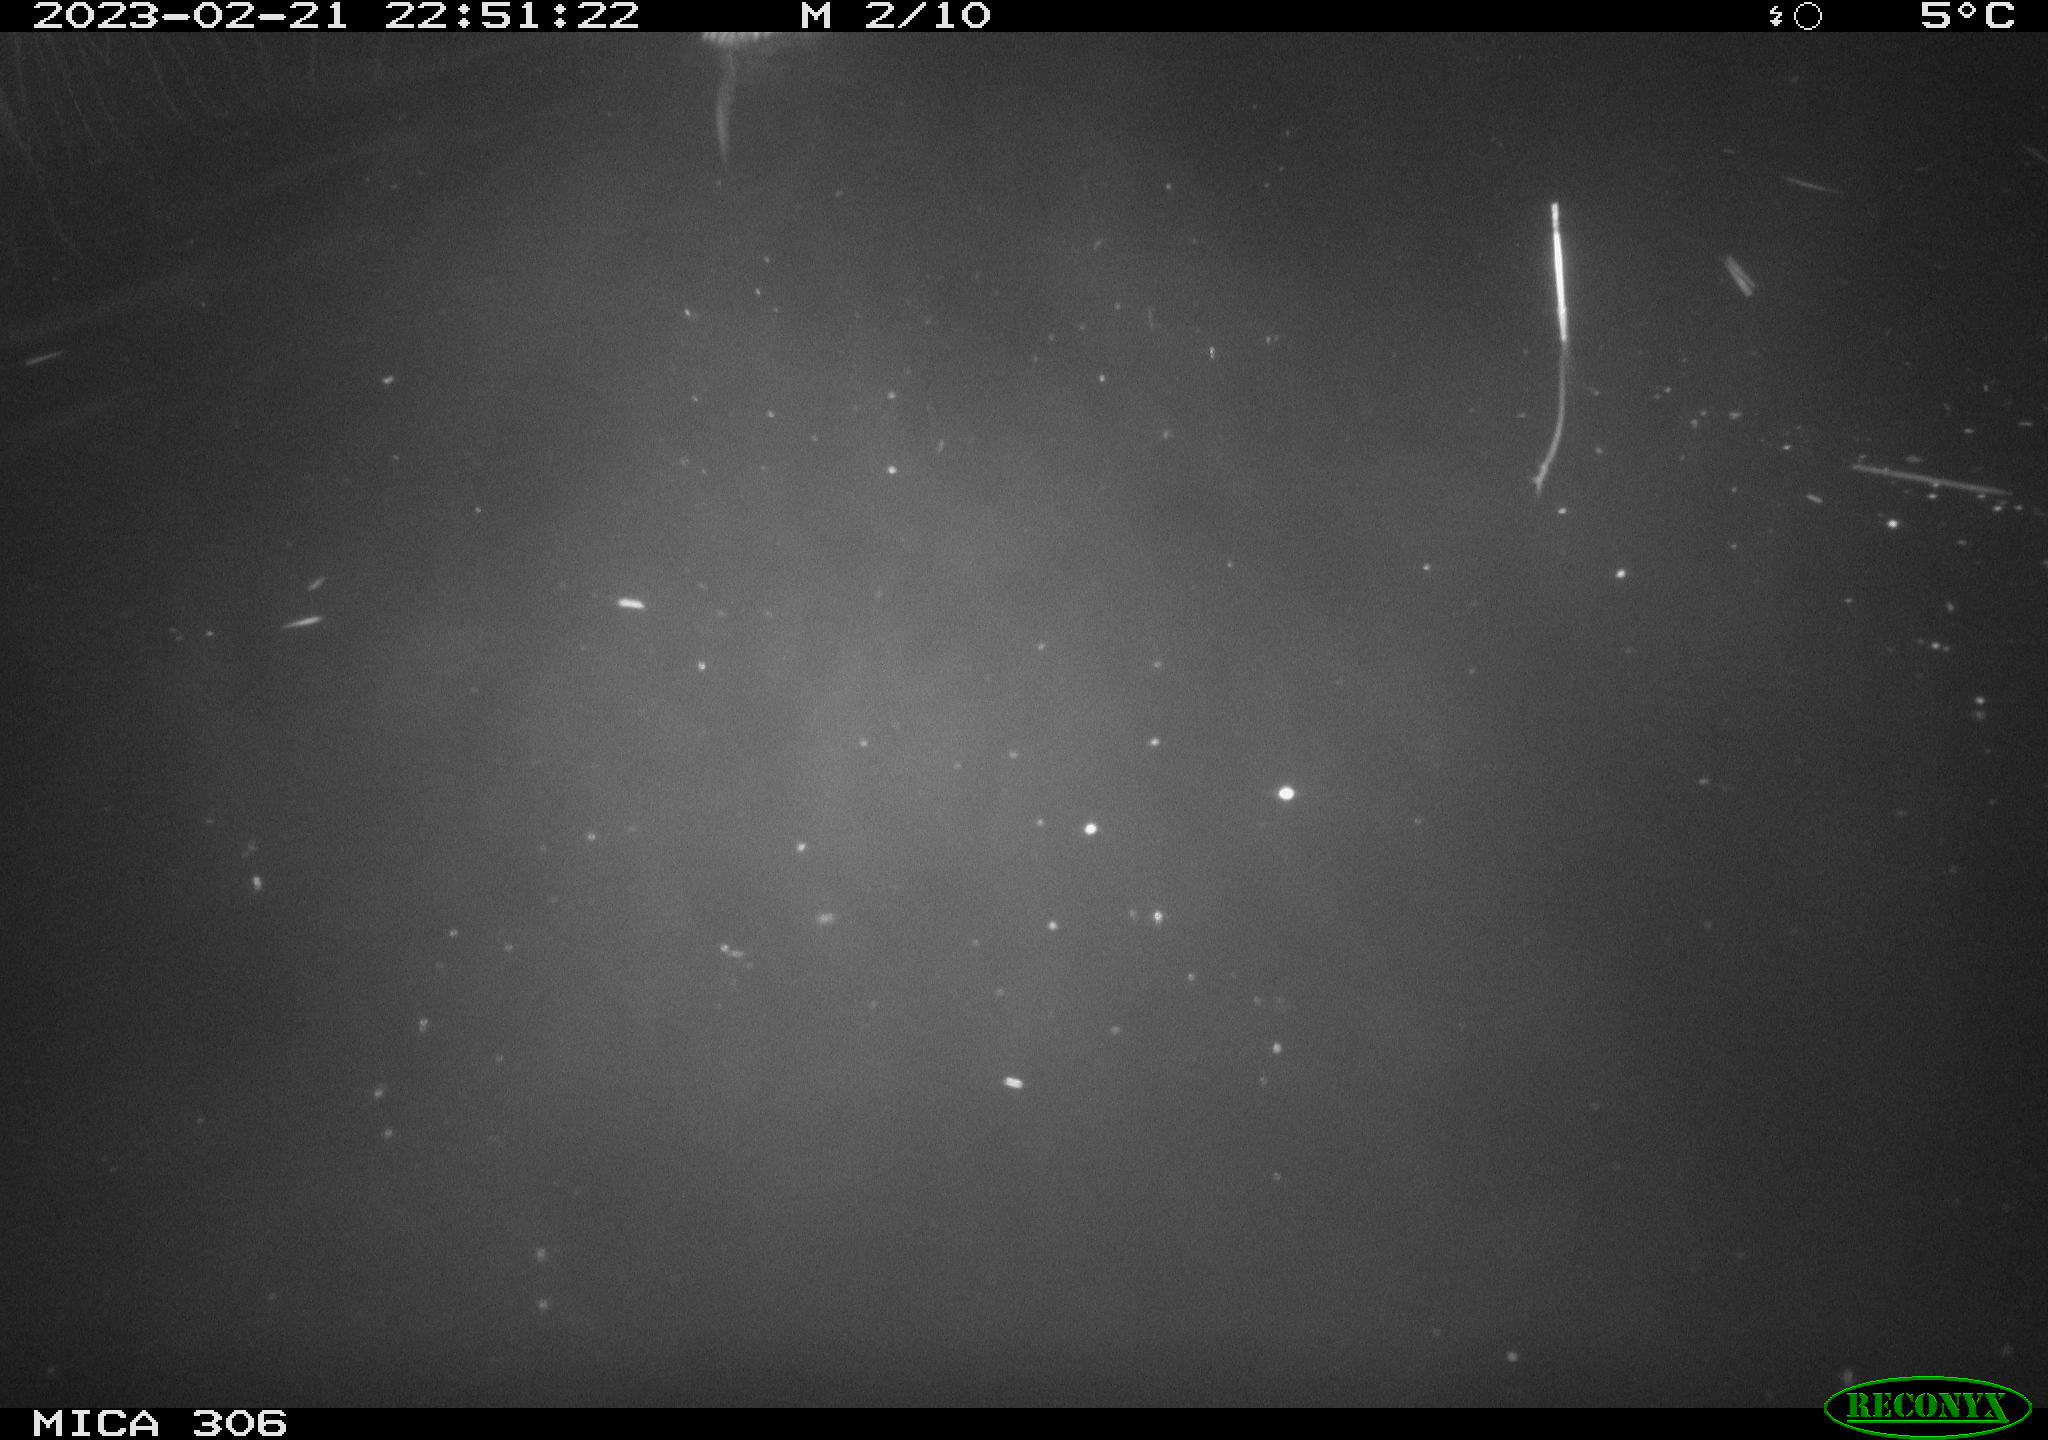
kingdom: Animalia
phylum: Chordata
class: Mammalia
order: Rodentia
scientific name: Rodentia
